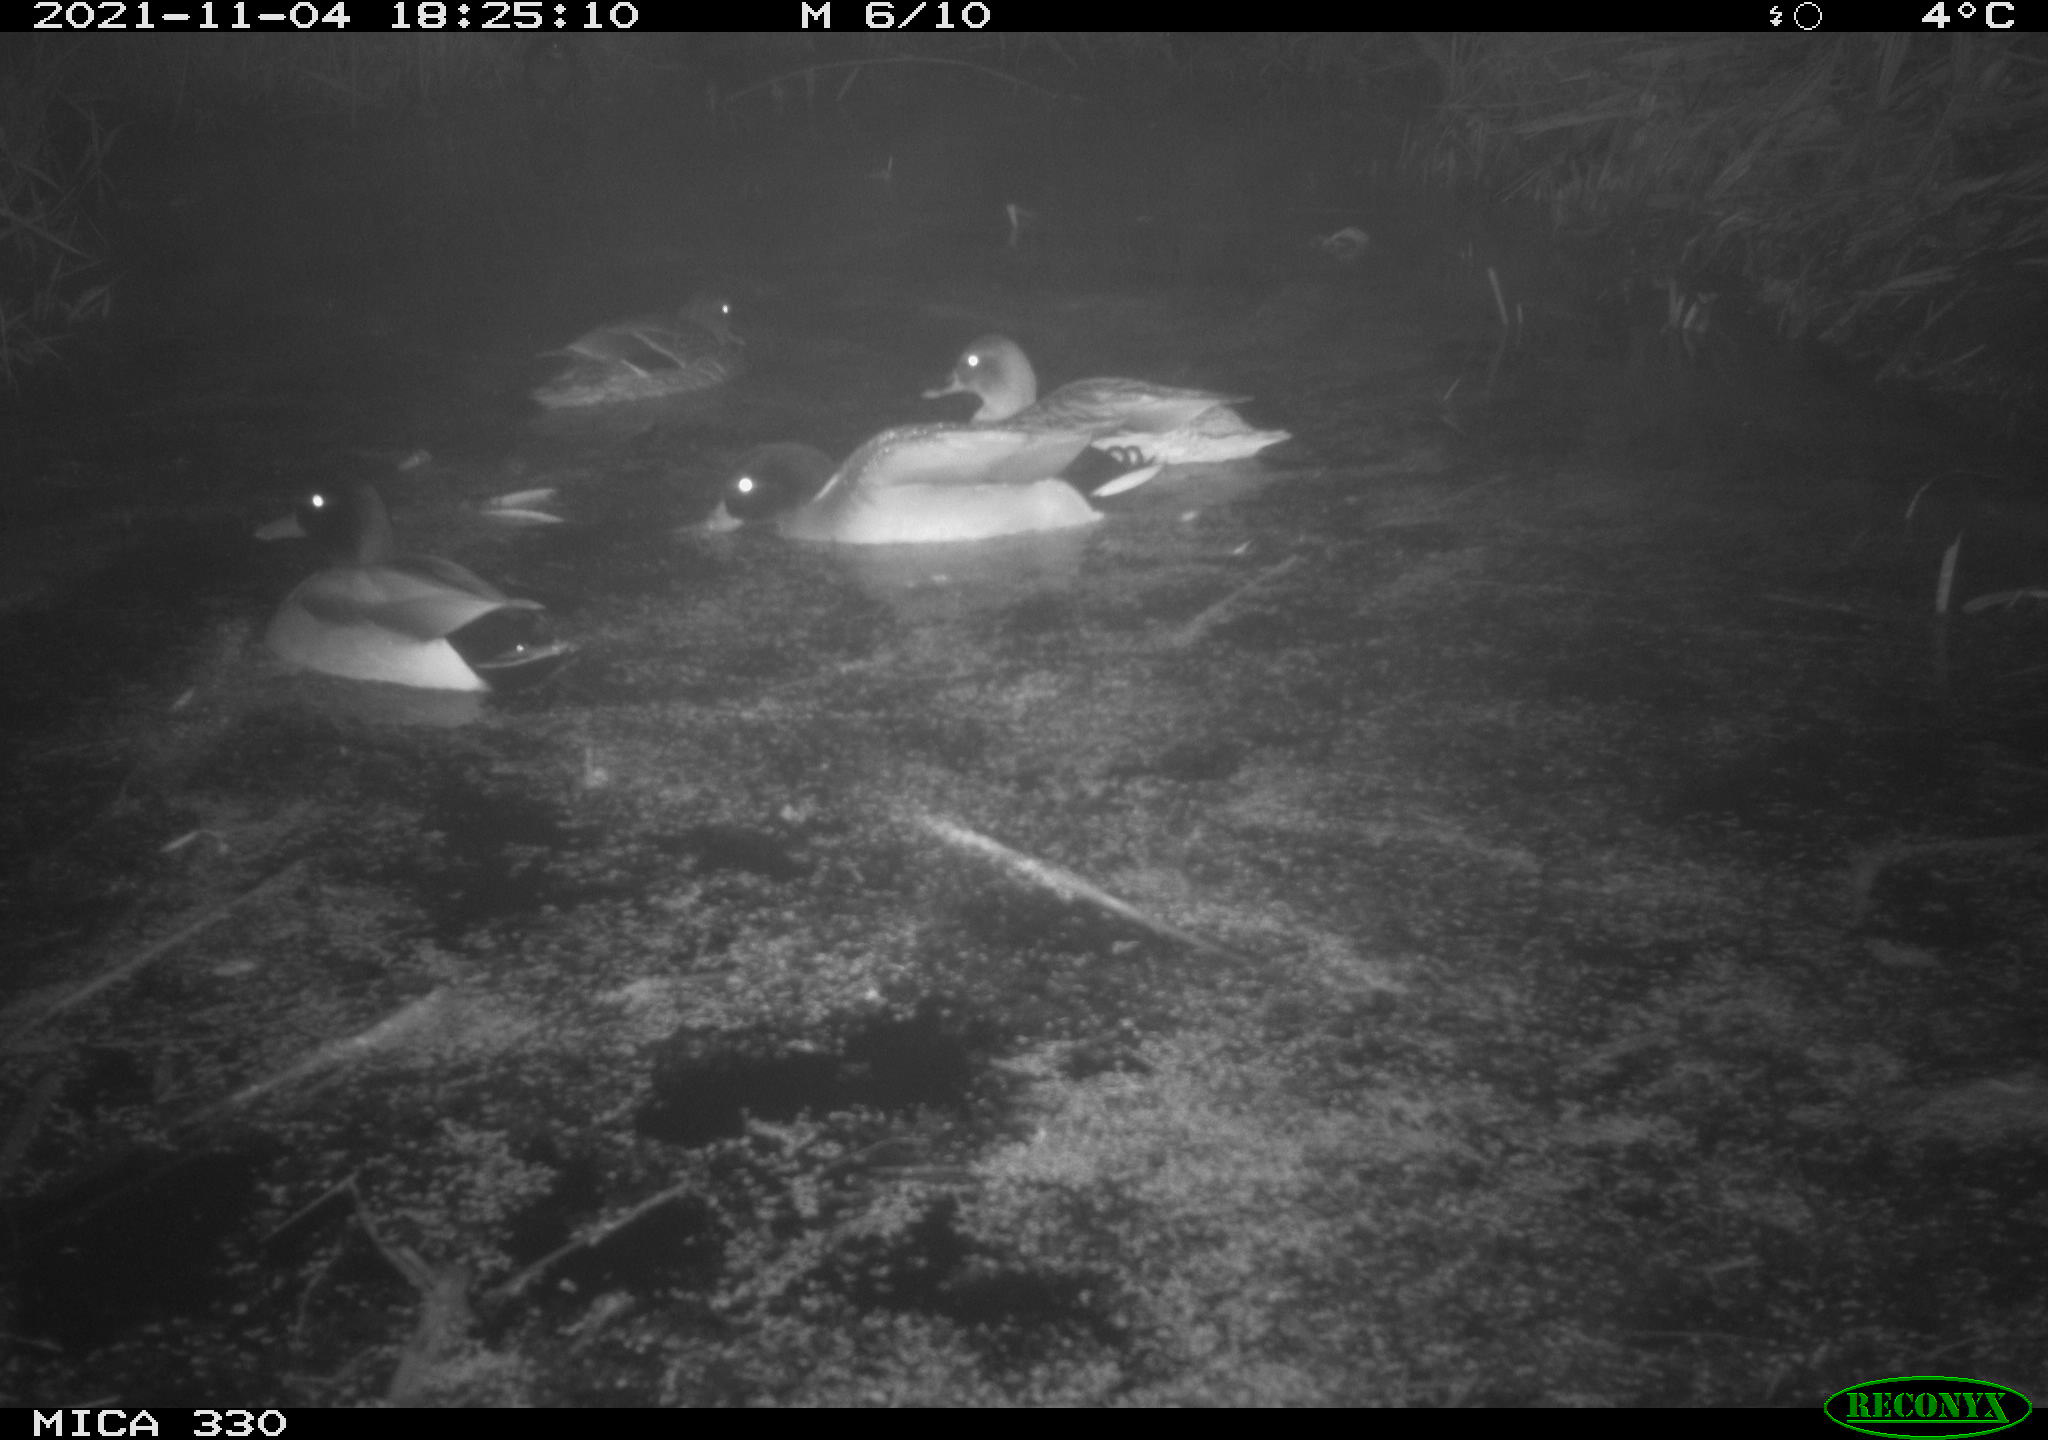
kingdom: Animalia
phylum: Chordata
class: Aves
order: Anseriformes
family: Anatidae
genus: Anas
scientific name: Anas platyrhynchos
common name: Mallard
